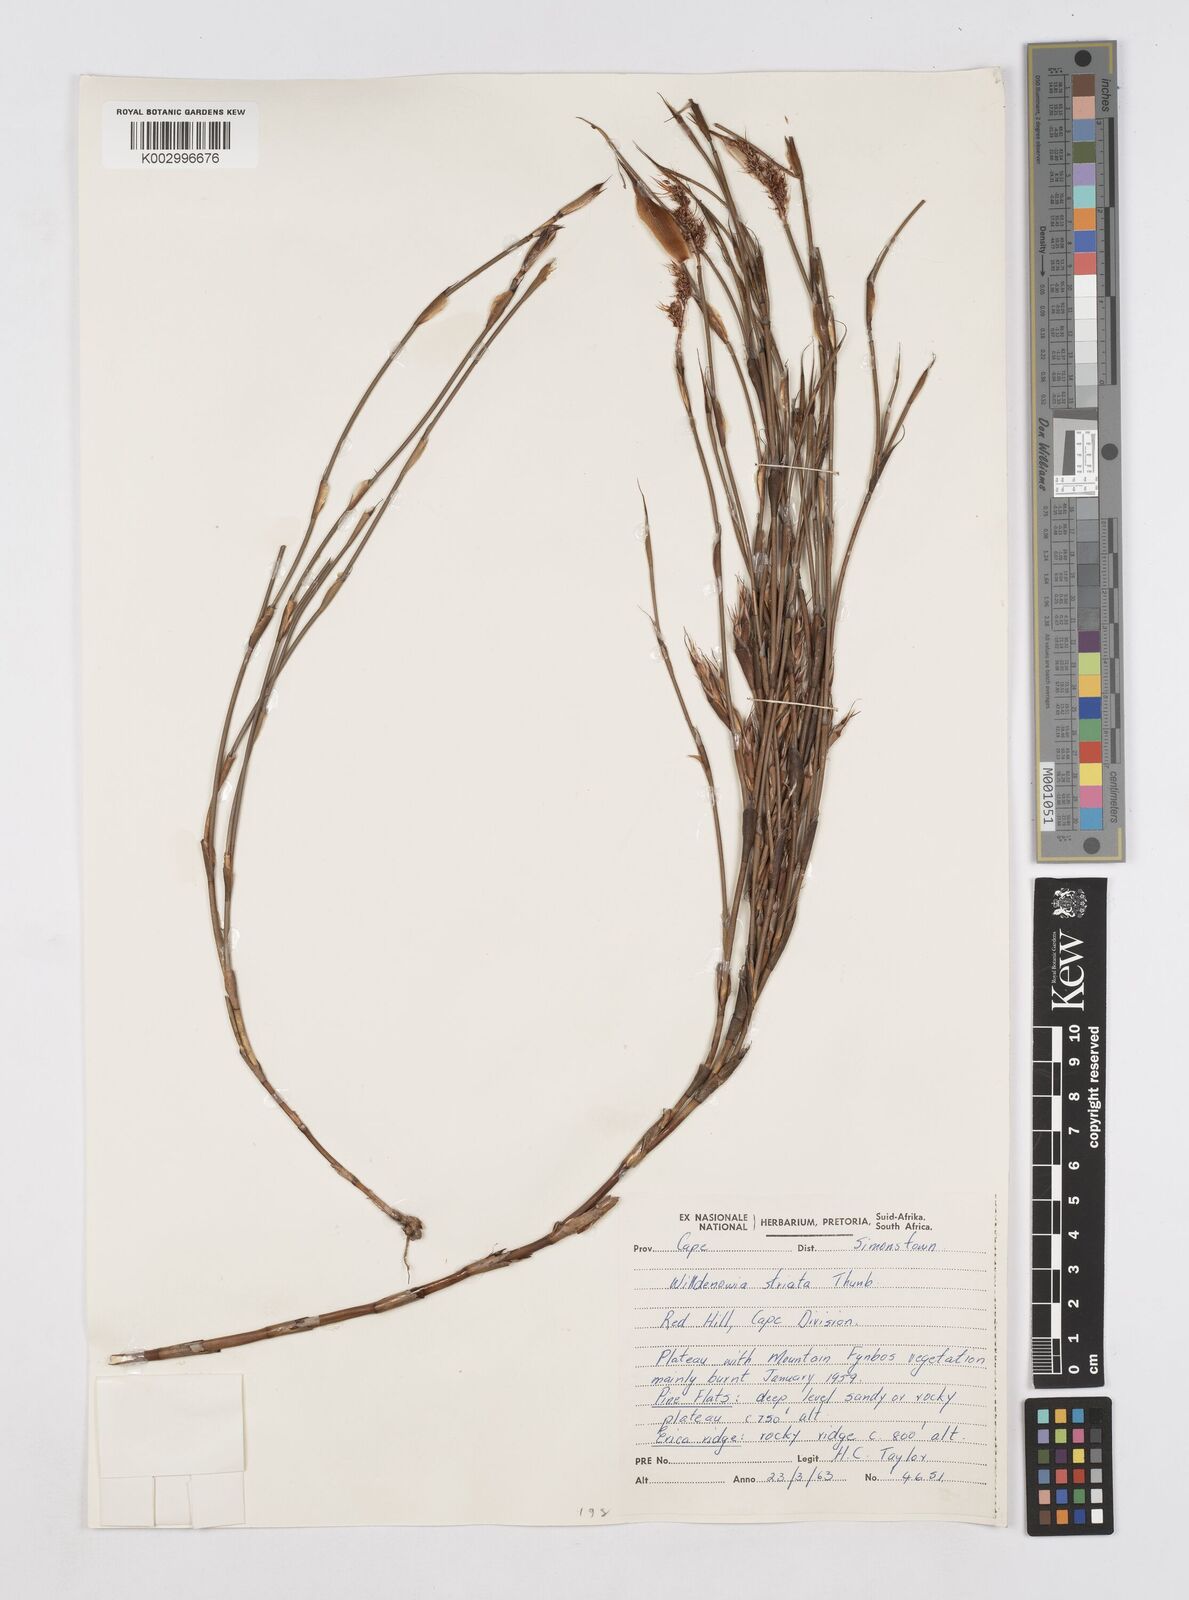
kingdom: Plantae
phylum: Tracheophyta
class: Liliopsida
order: Poales
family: Restionaceae
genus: Willdenowia
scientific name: Willdenowia glomerata
